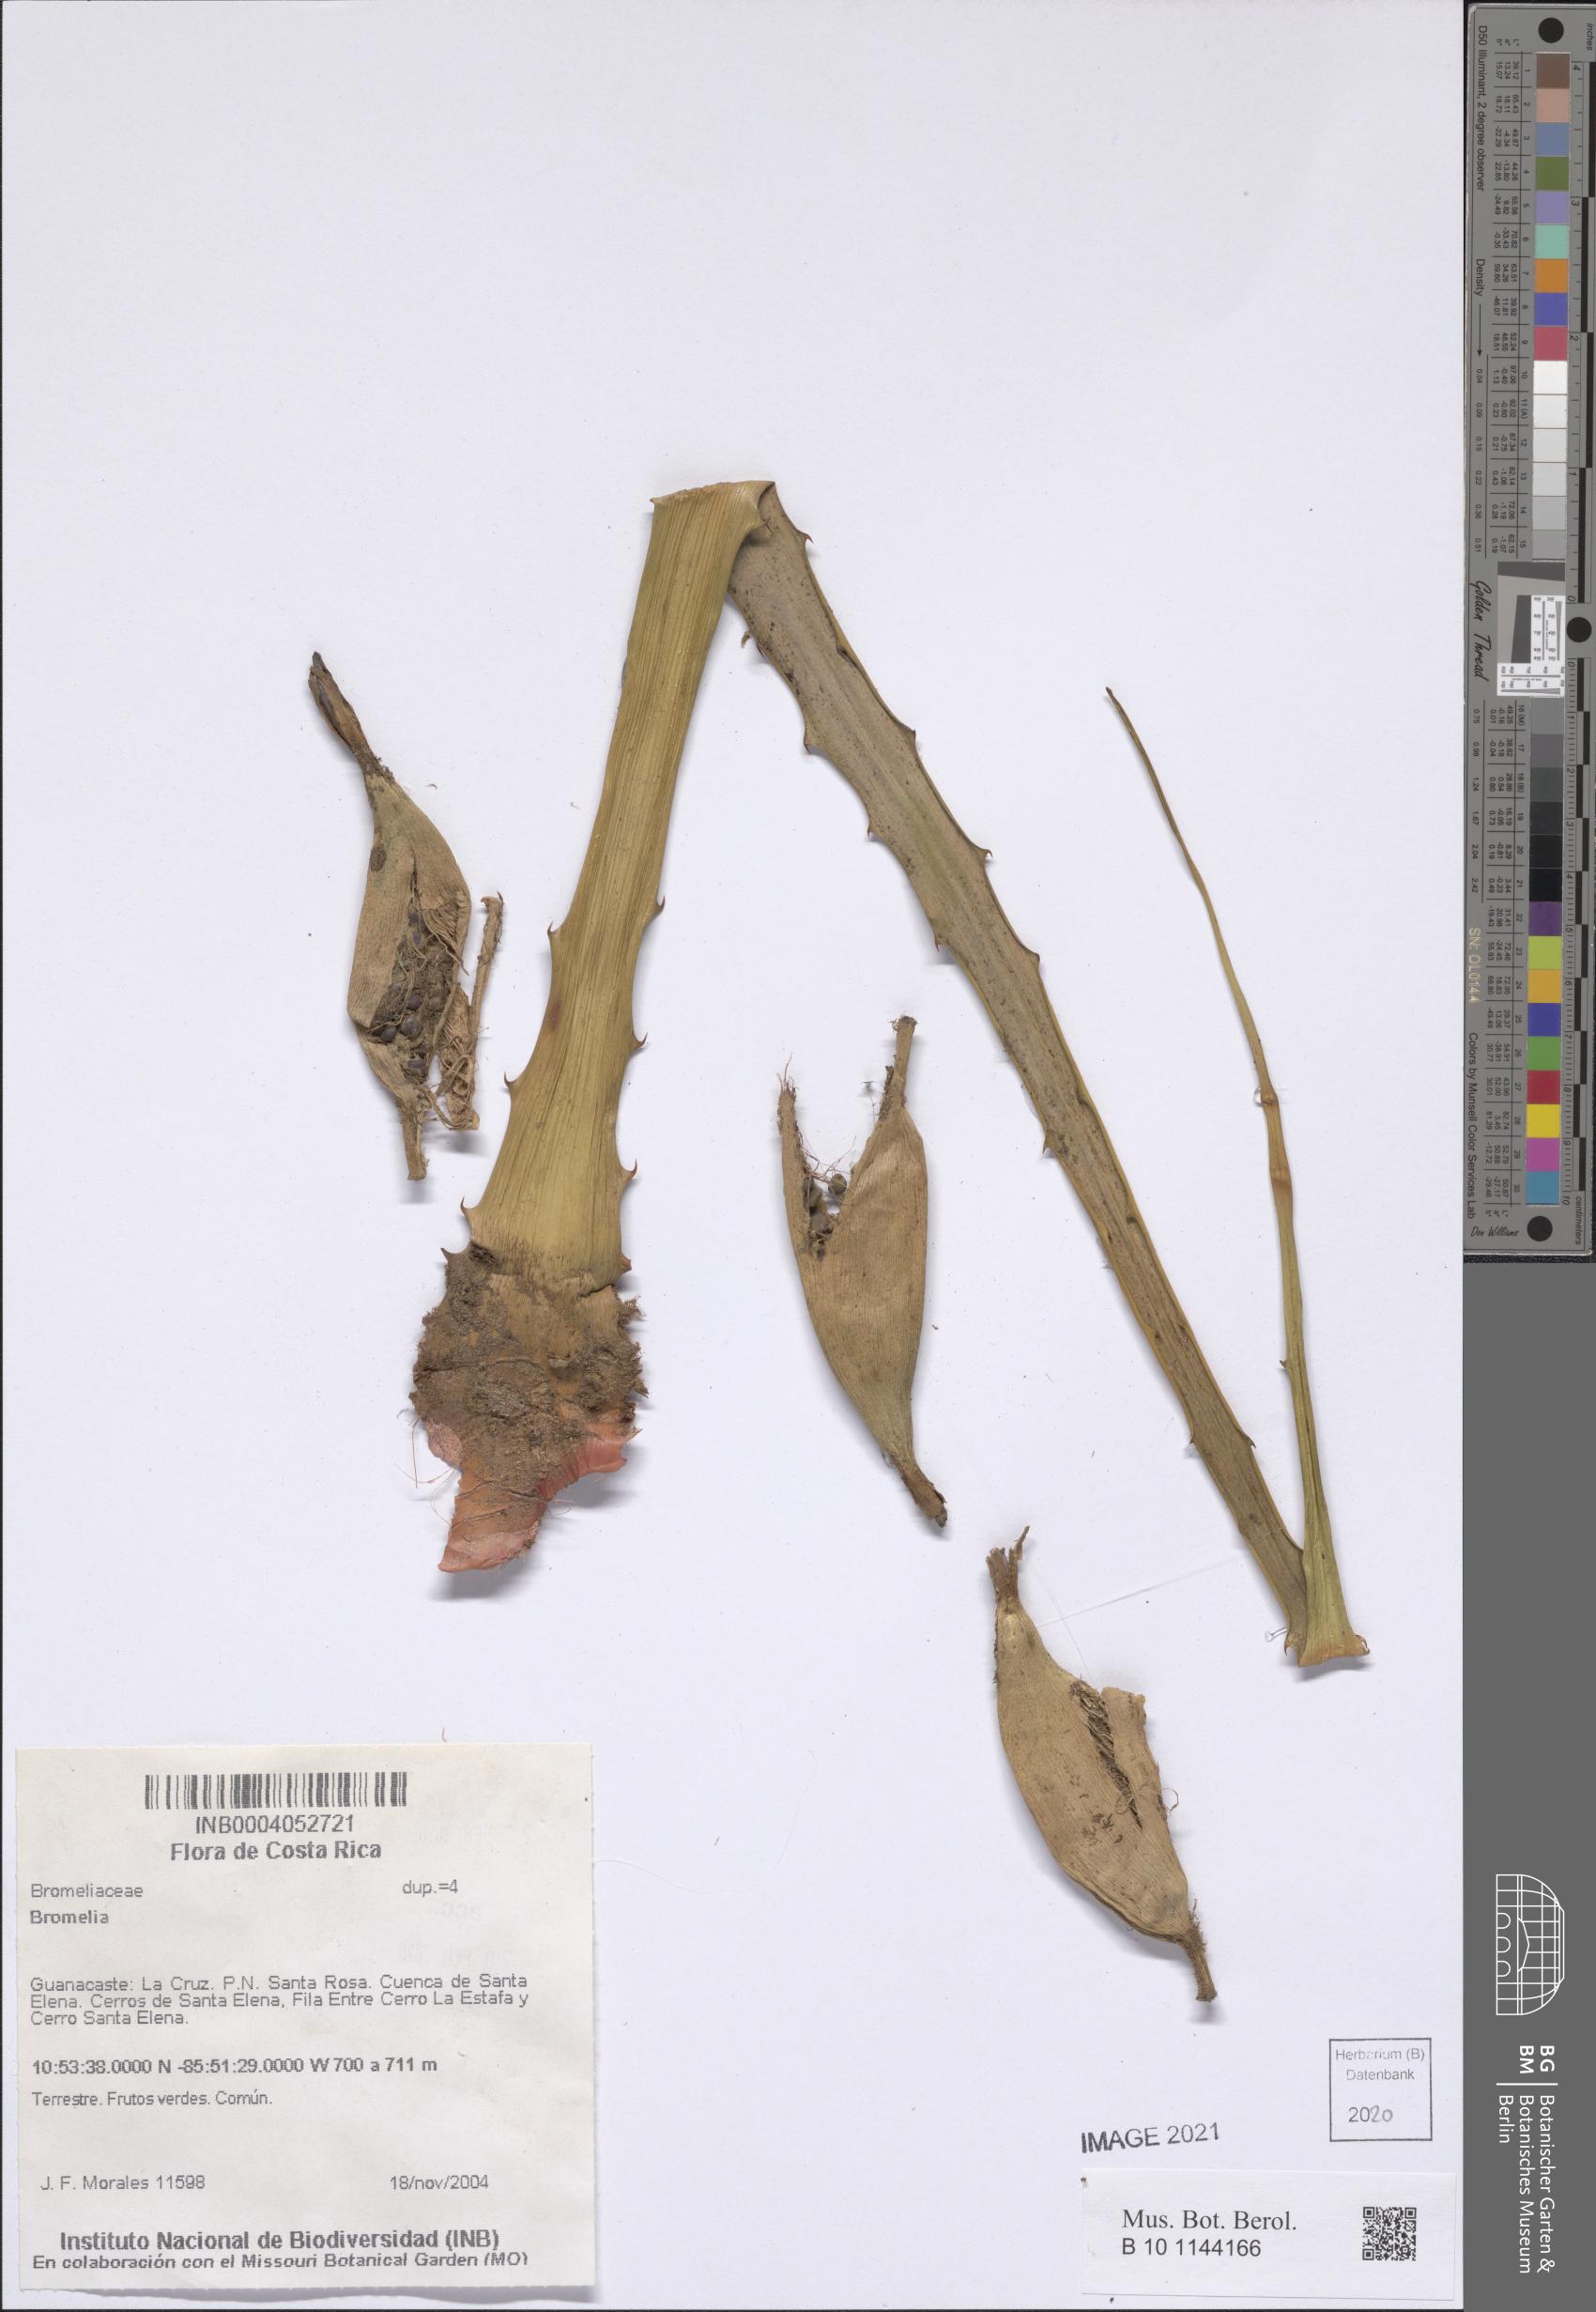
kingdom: Plantae
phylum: Tracheophyta
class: Liliopsida
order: Poales
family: Bromeliaceae
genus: Bromelia
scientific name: Bromelia
